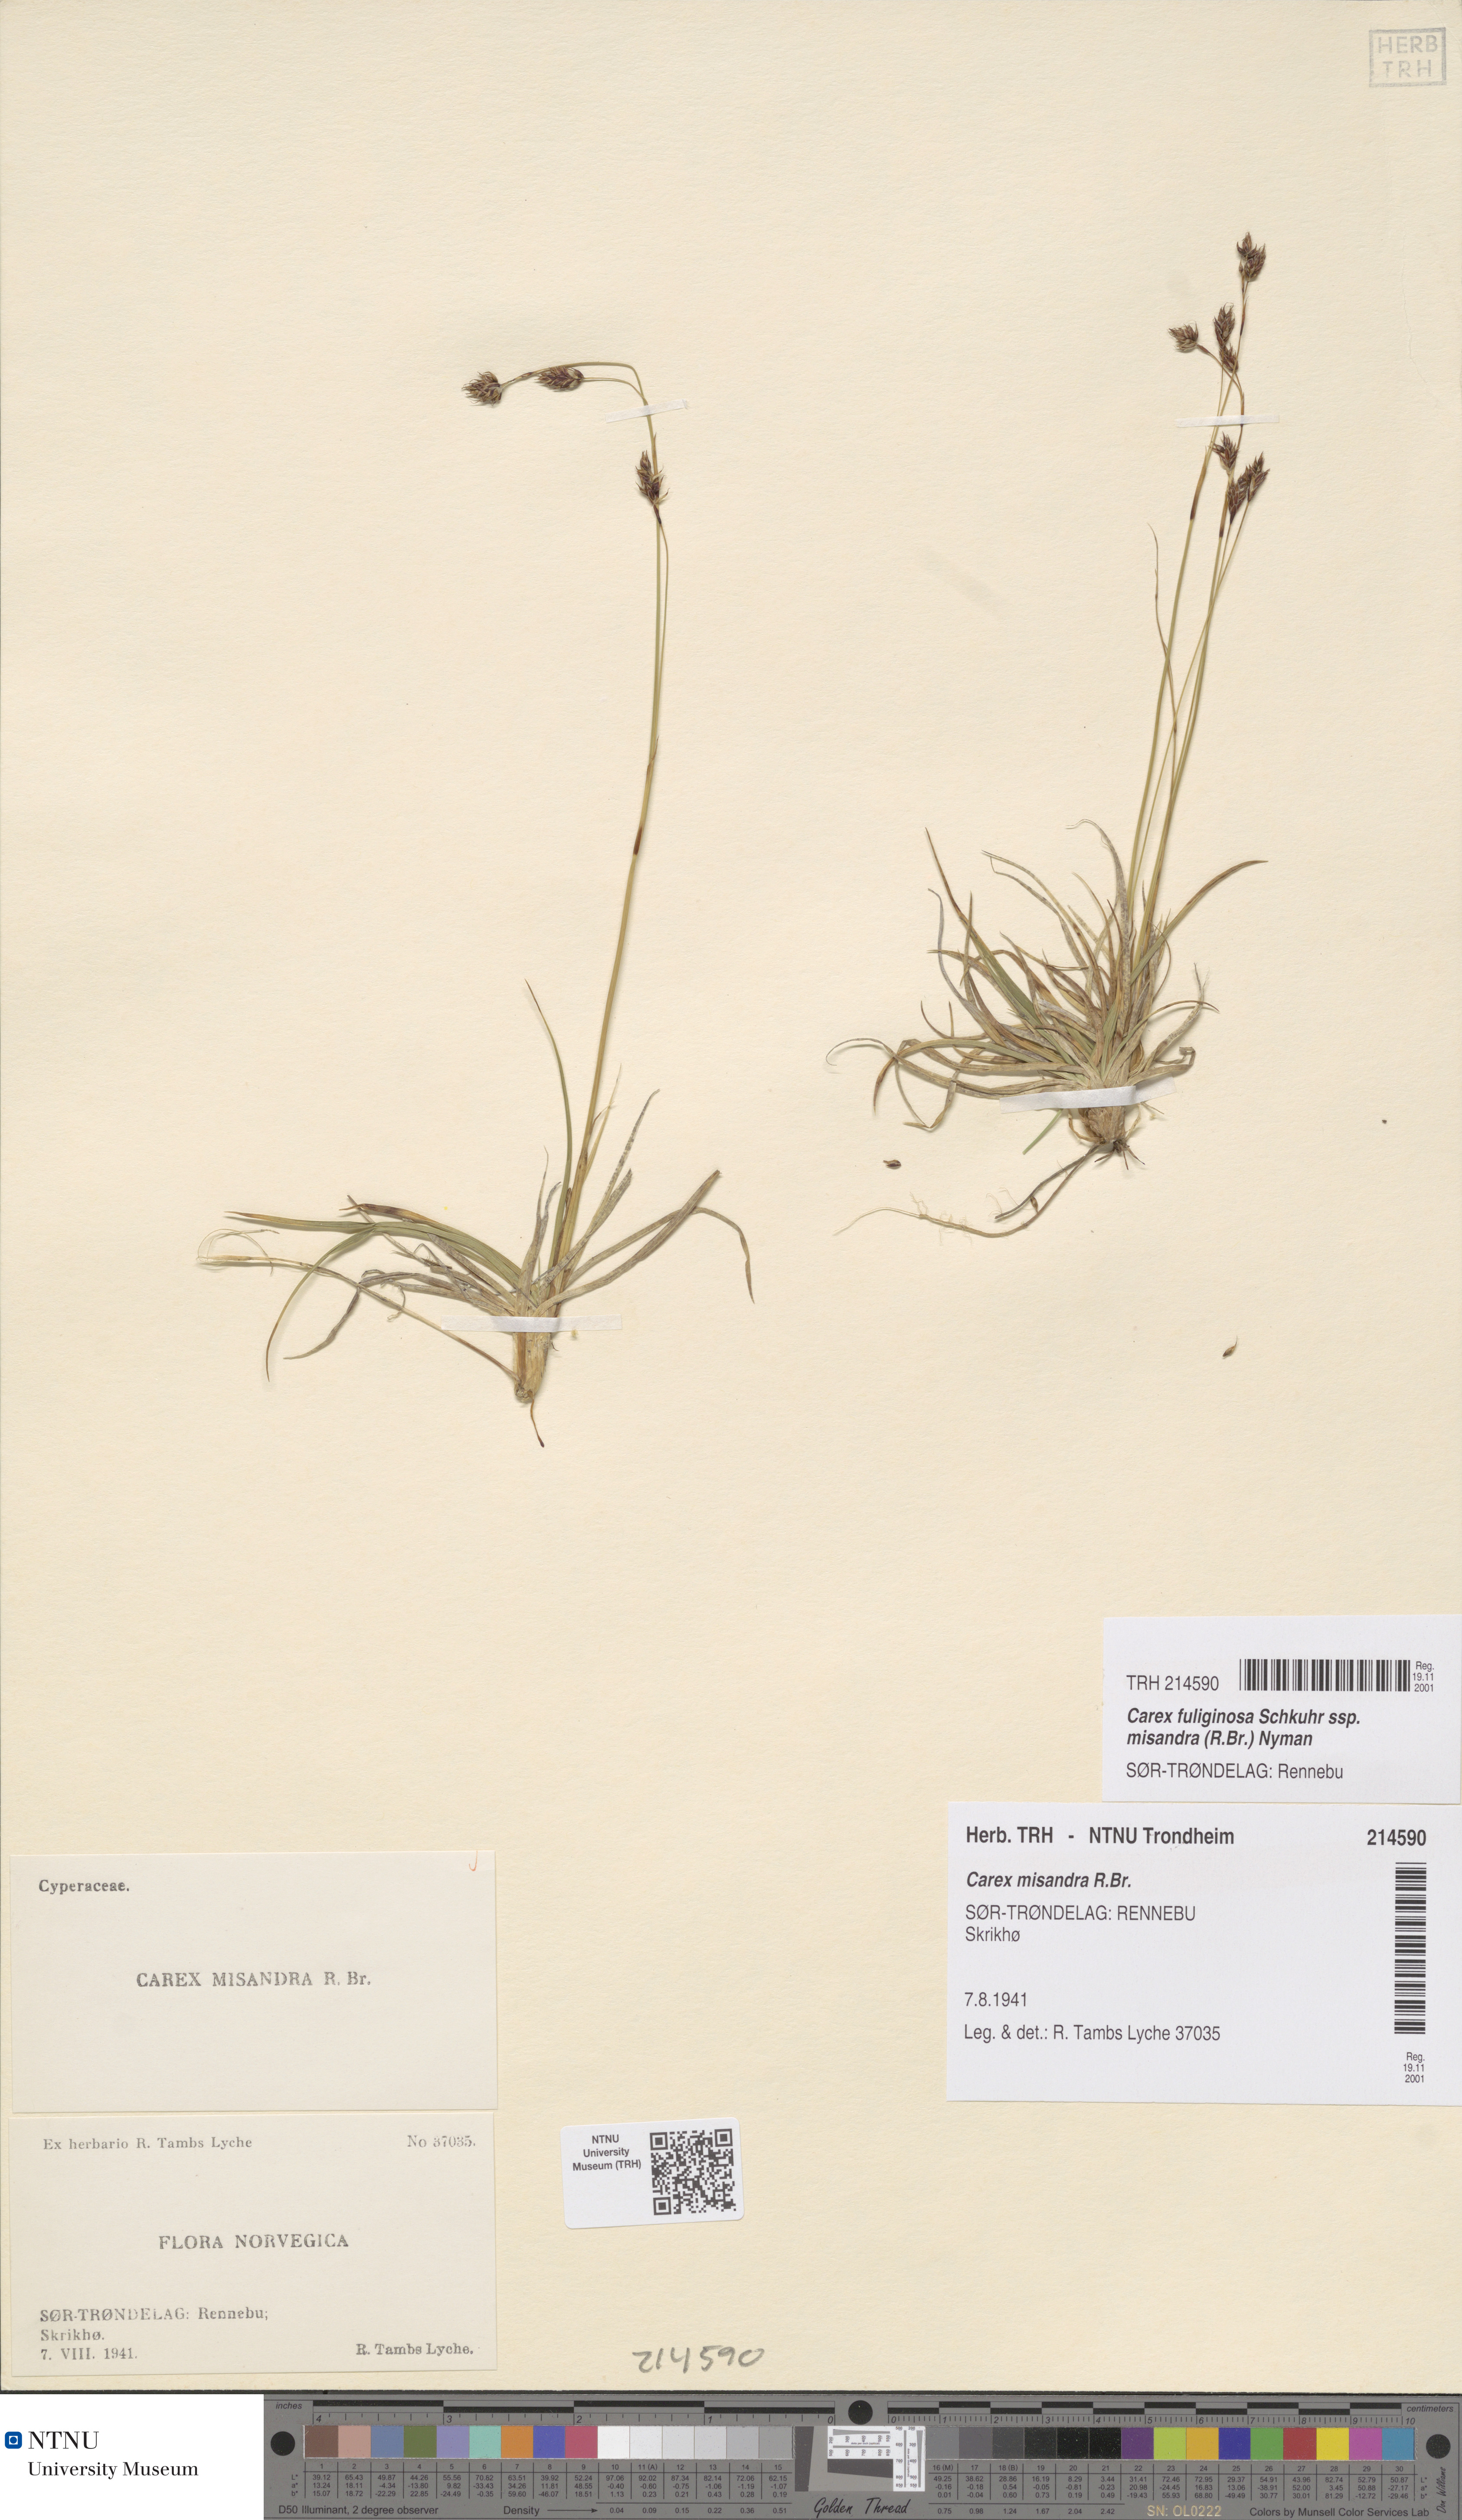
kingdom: Plantae
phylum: Tracheophyta
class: Liliopsida
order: Poales
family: Cyperaceae
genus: Carex
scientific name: Carex fuliginosa
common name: Few-flowered sedge
